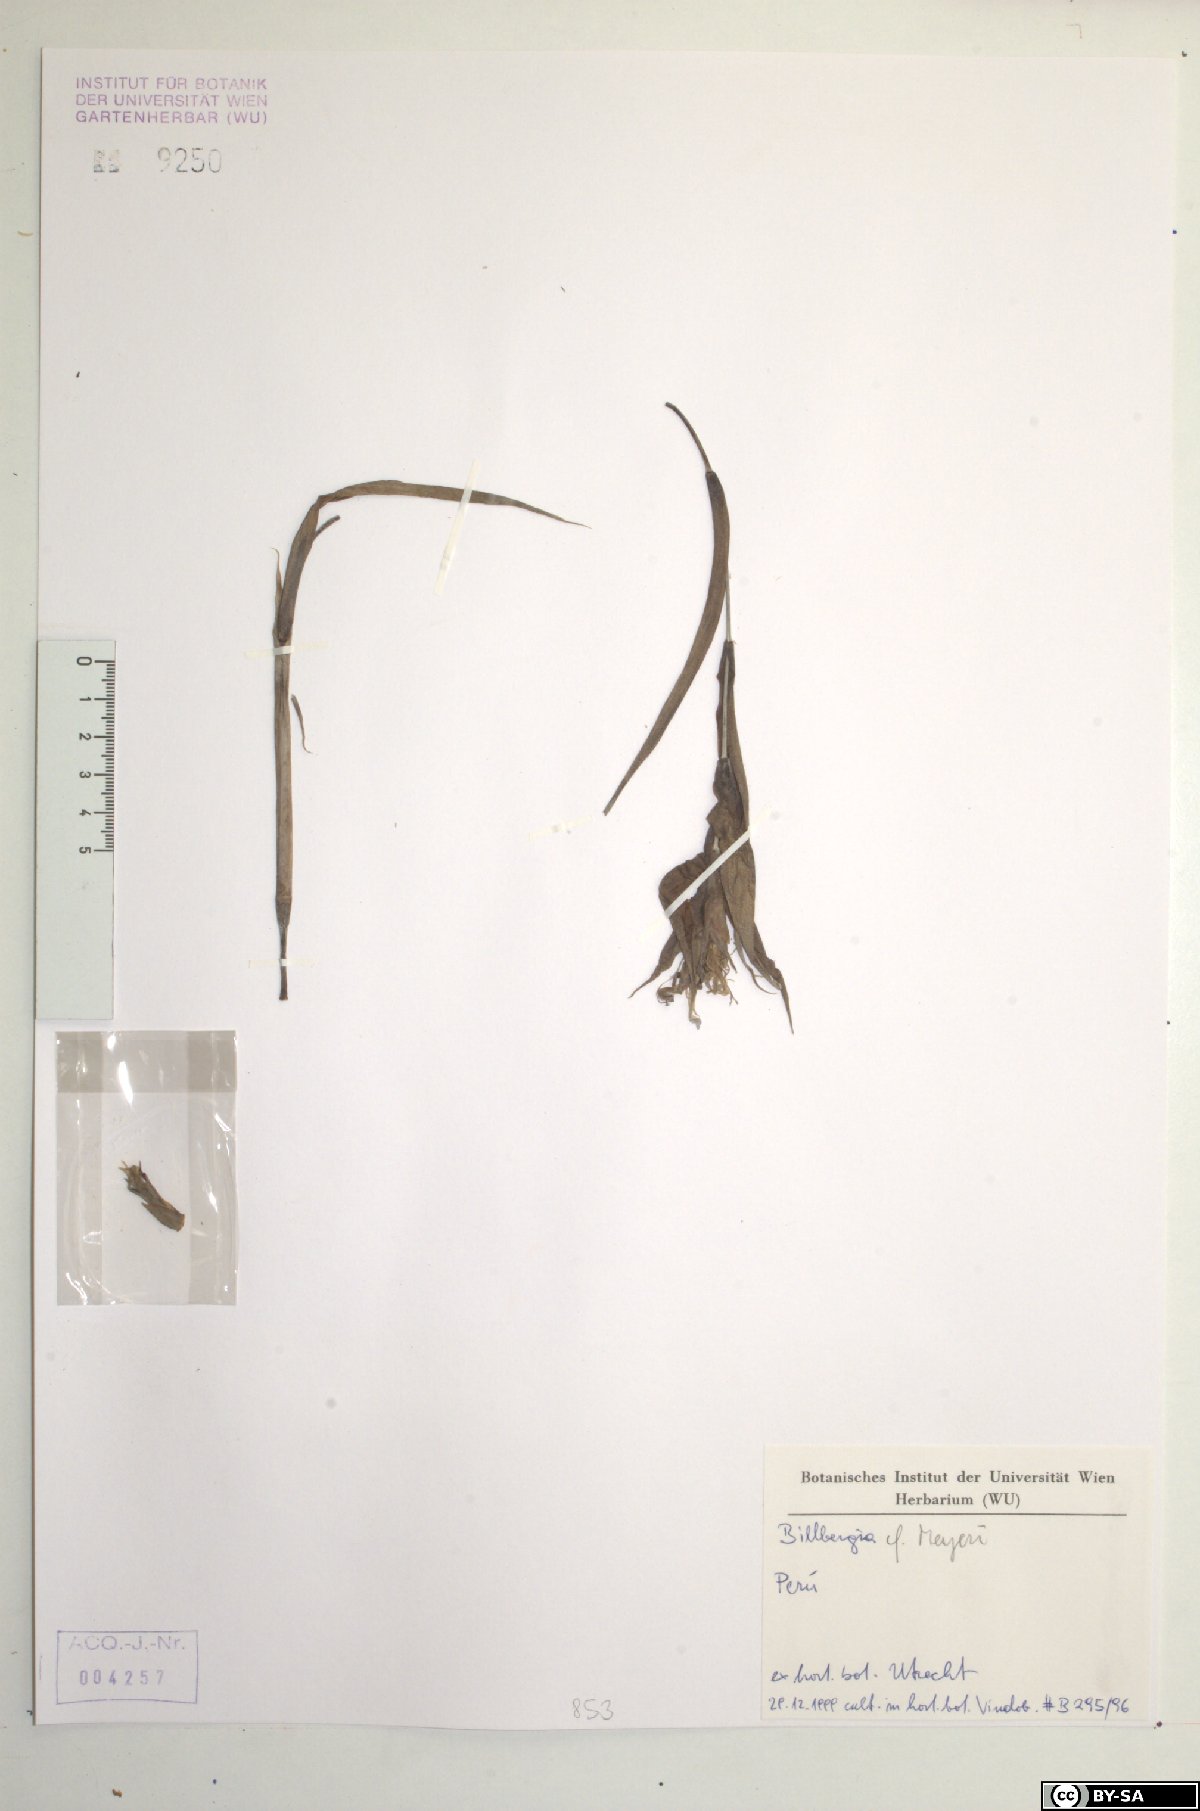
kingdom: Plantae
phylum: Tracheophyta
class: Liliopsida
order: Poales
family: Bromeliaceae
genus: Billbergia
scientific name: Billbergia meyeri
